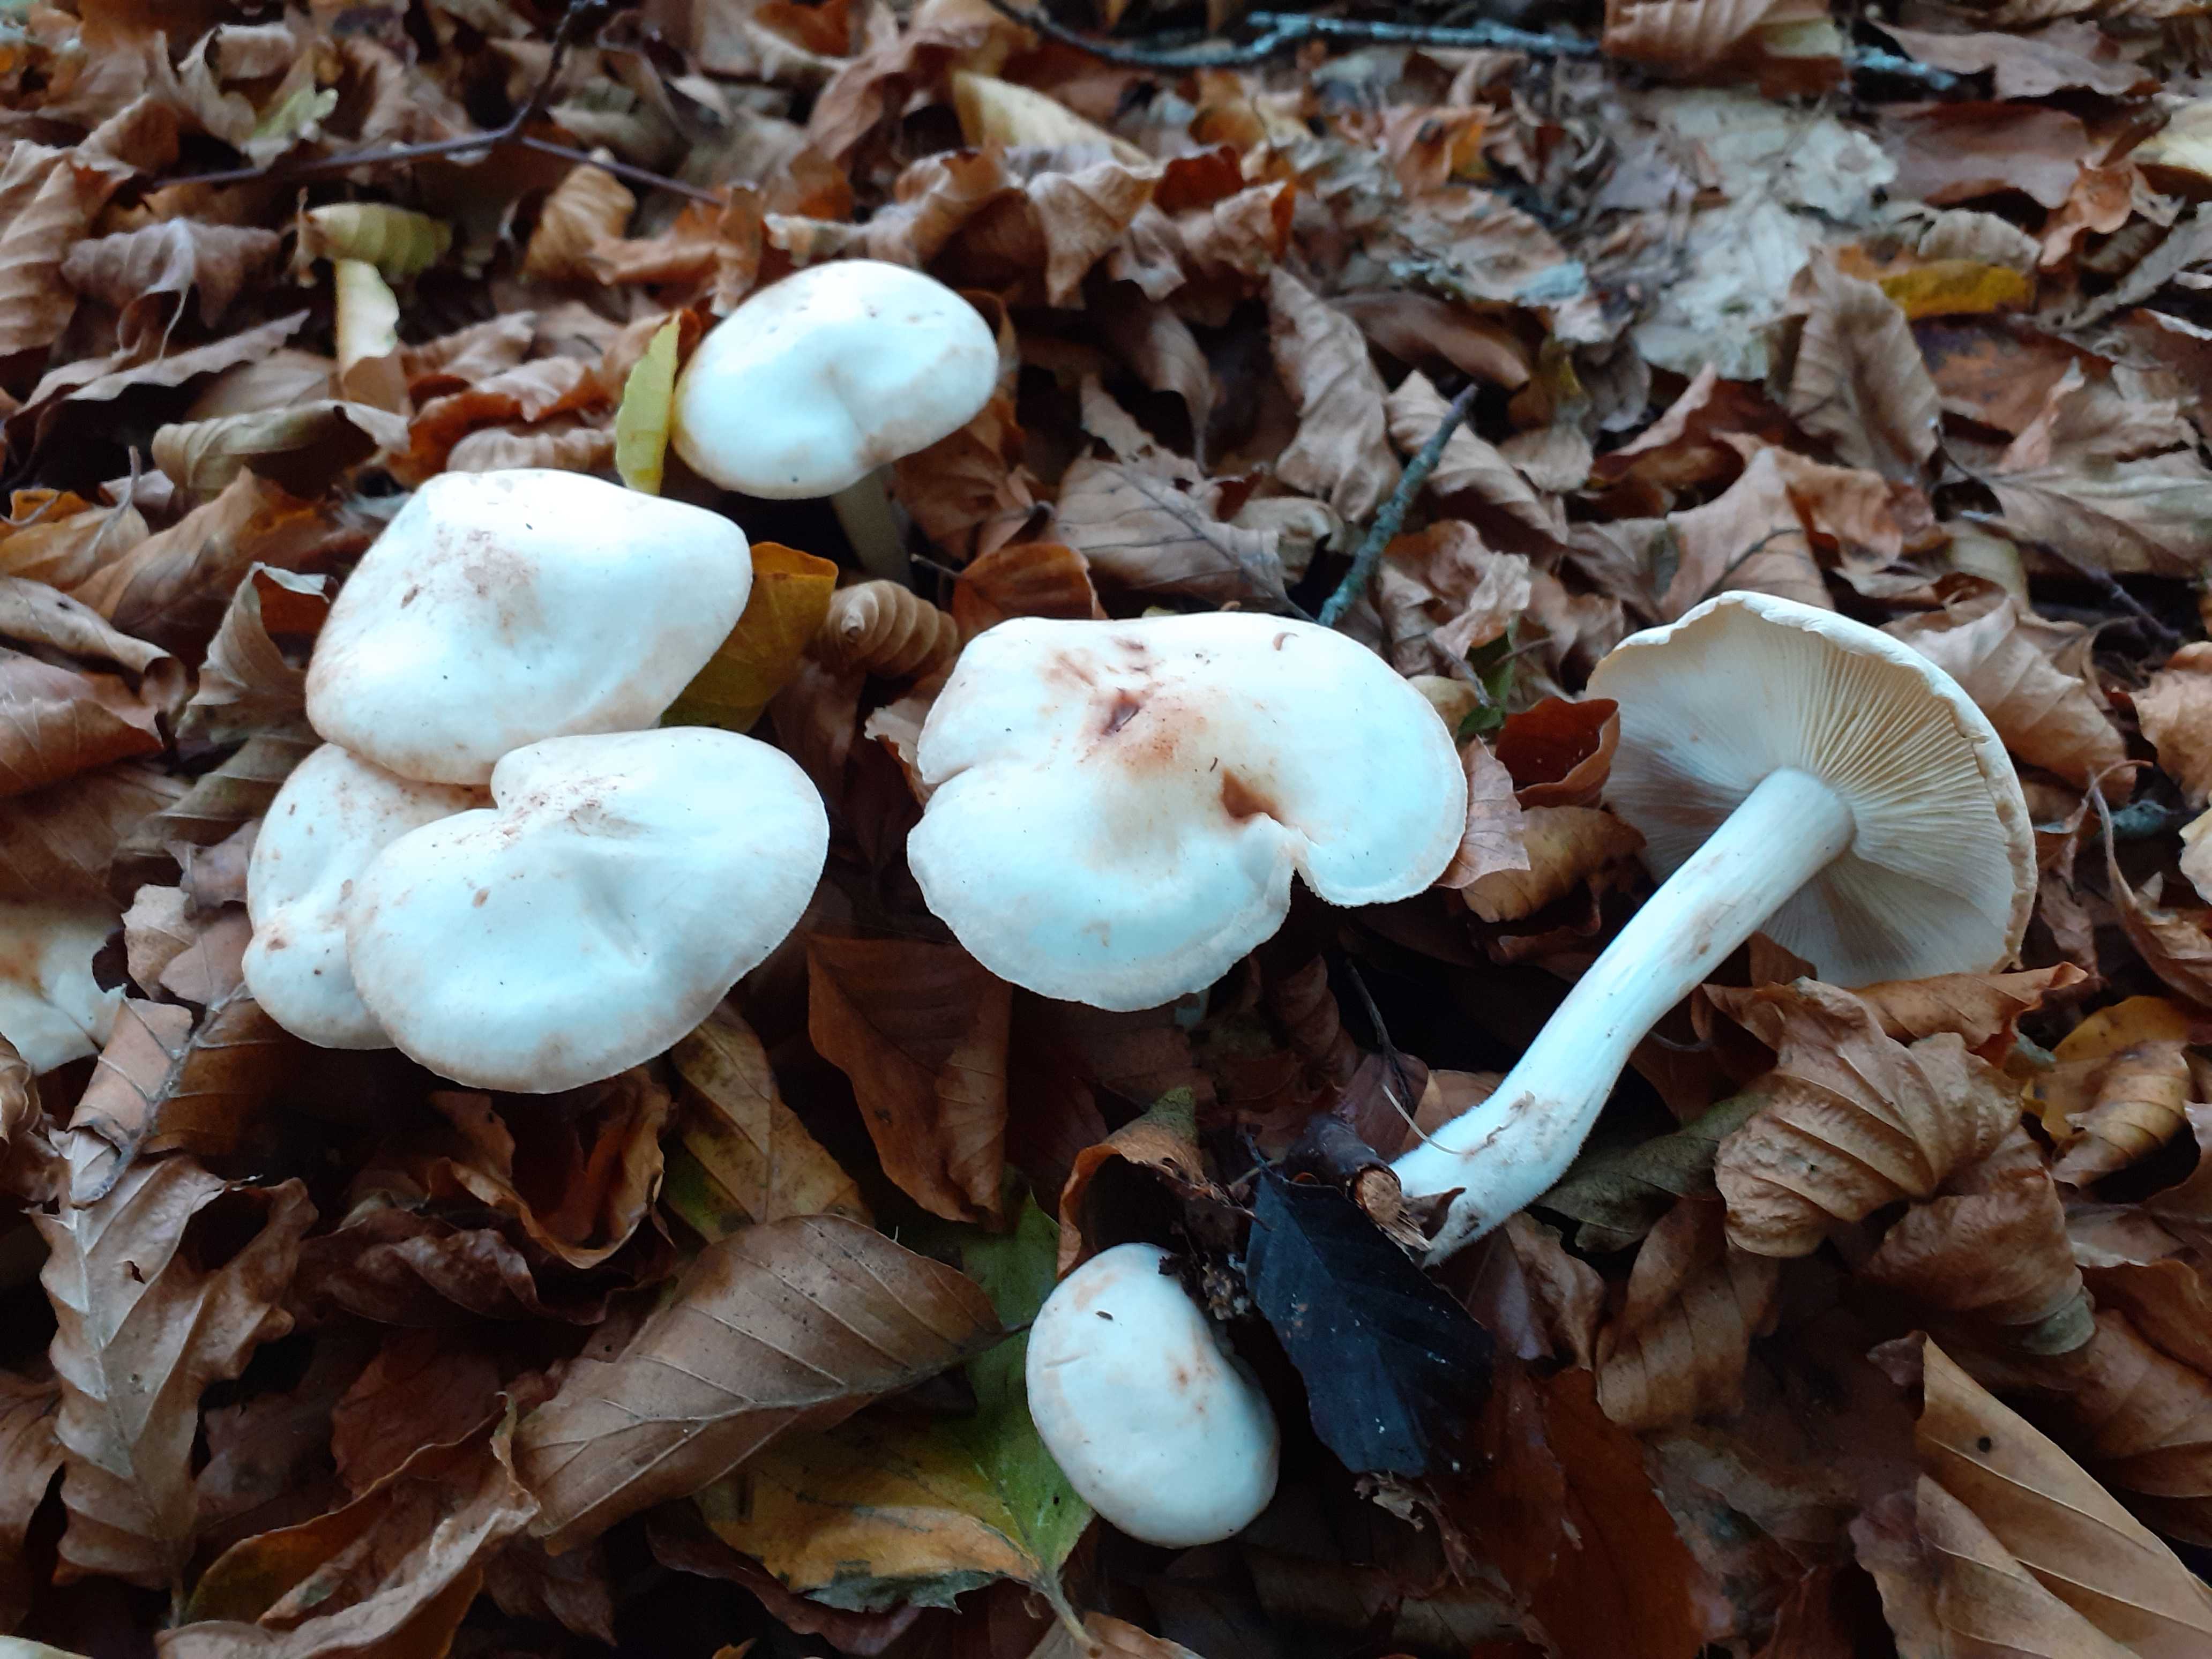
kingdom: Fungi
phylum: Basidiomycota
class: Agaricomycetes
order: Agaricales
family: Omphalotaceae
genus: Rhodocollybia
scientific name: Rhodocollybia maculata
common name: plettet fladhat
